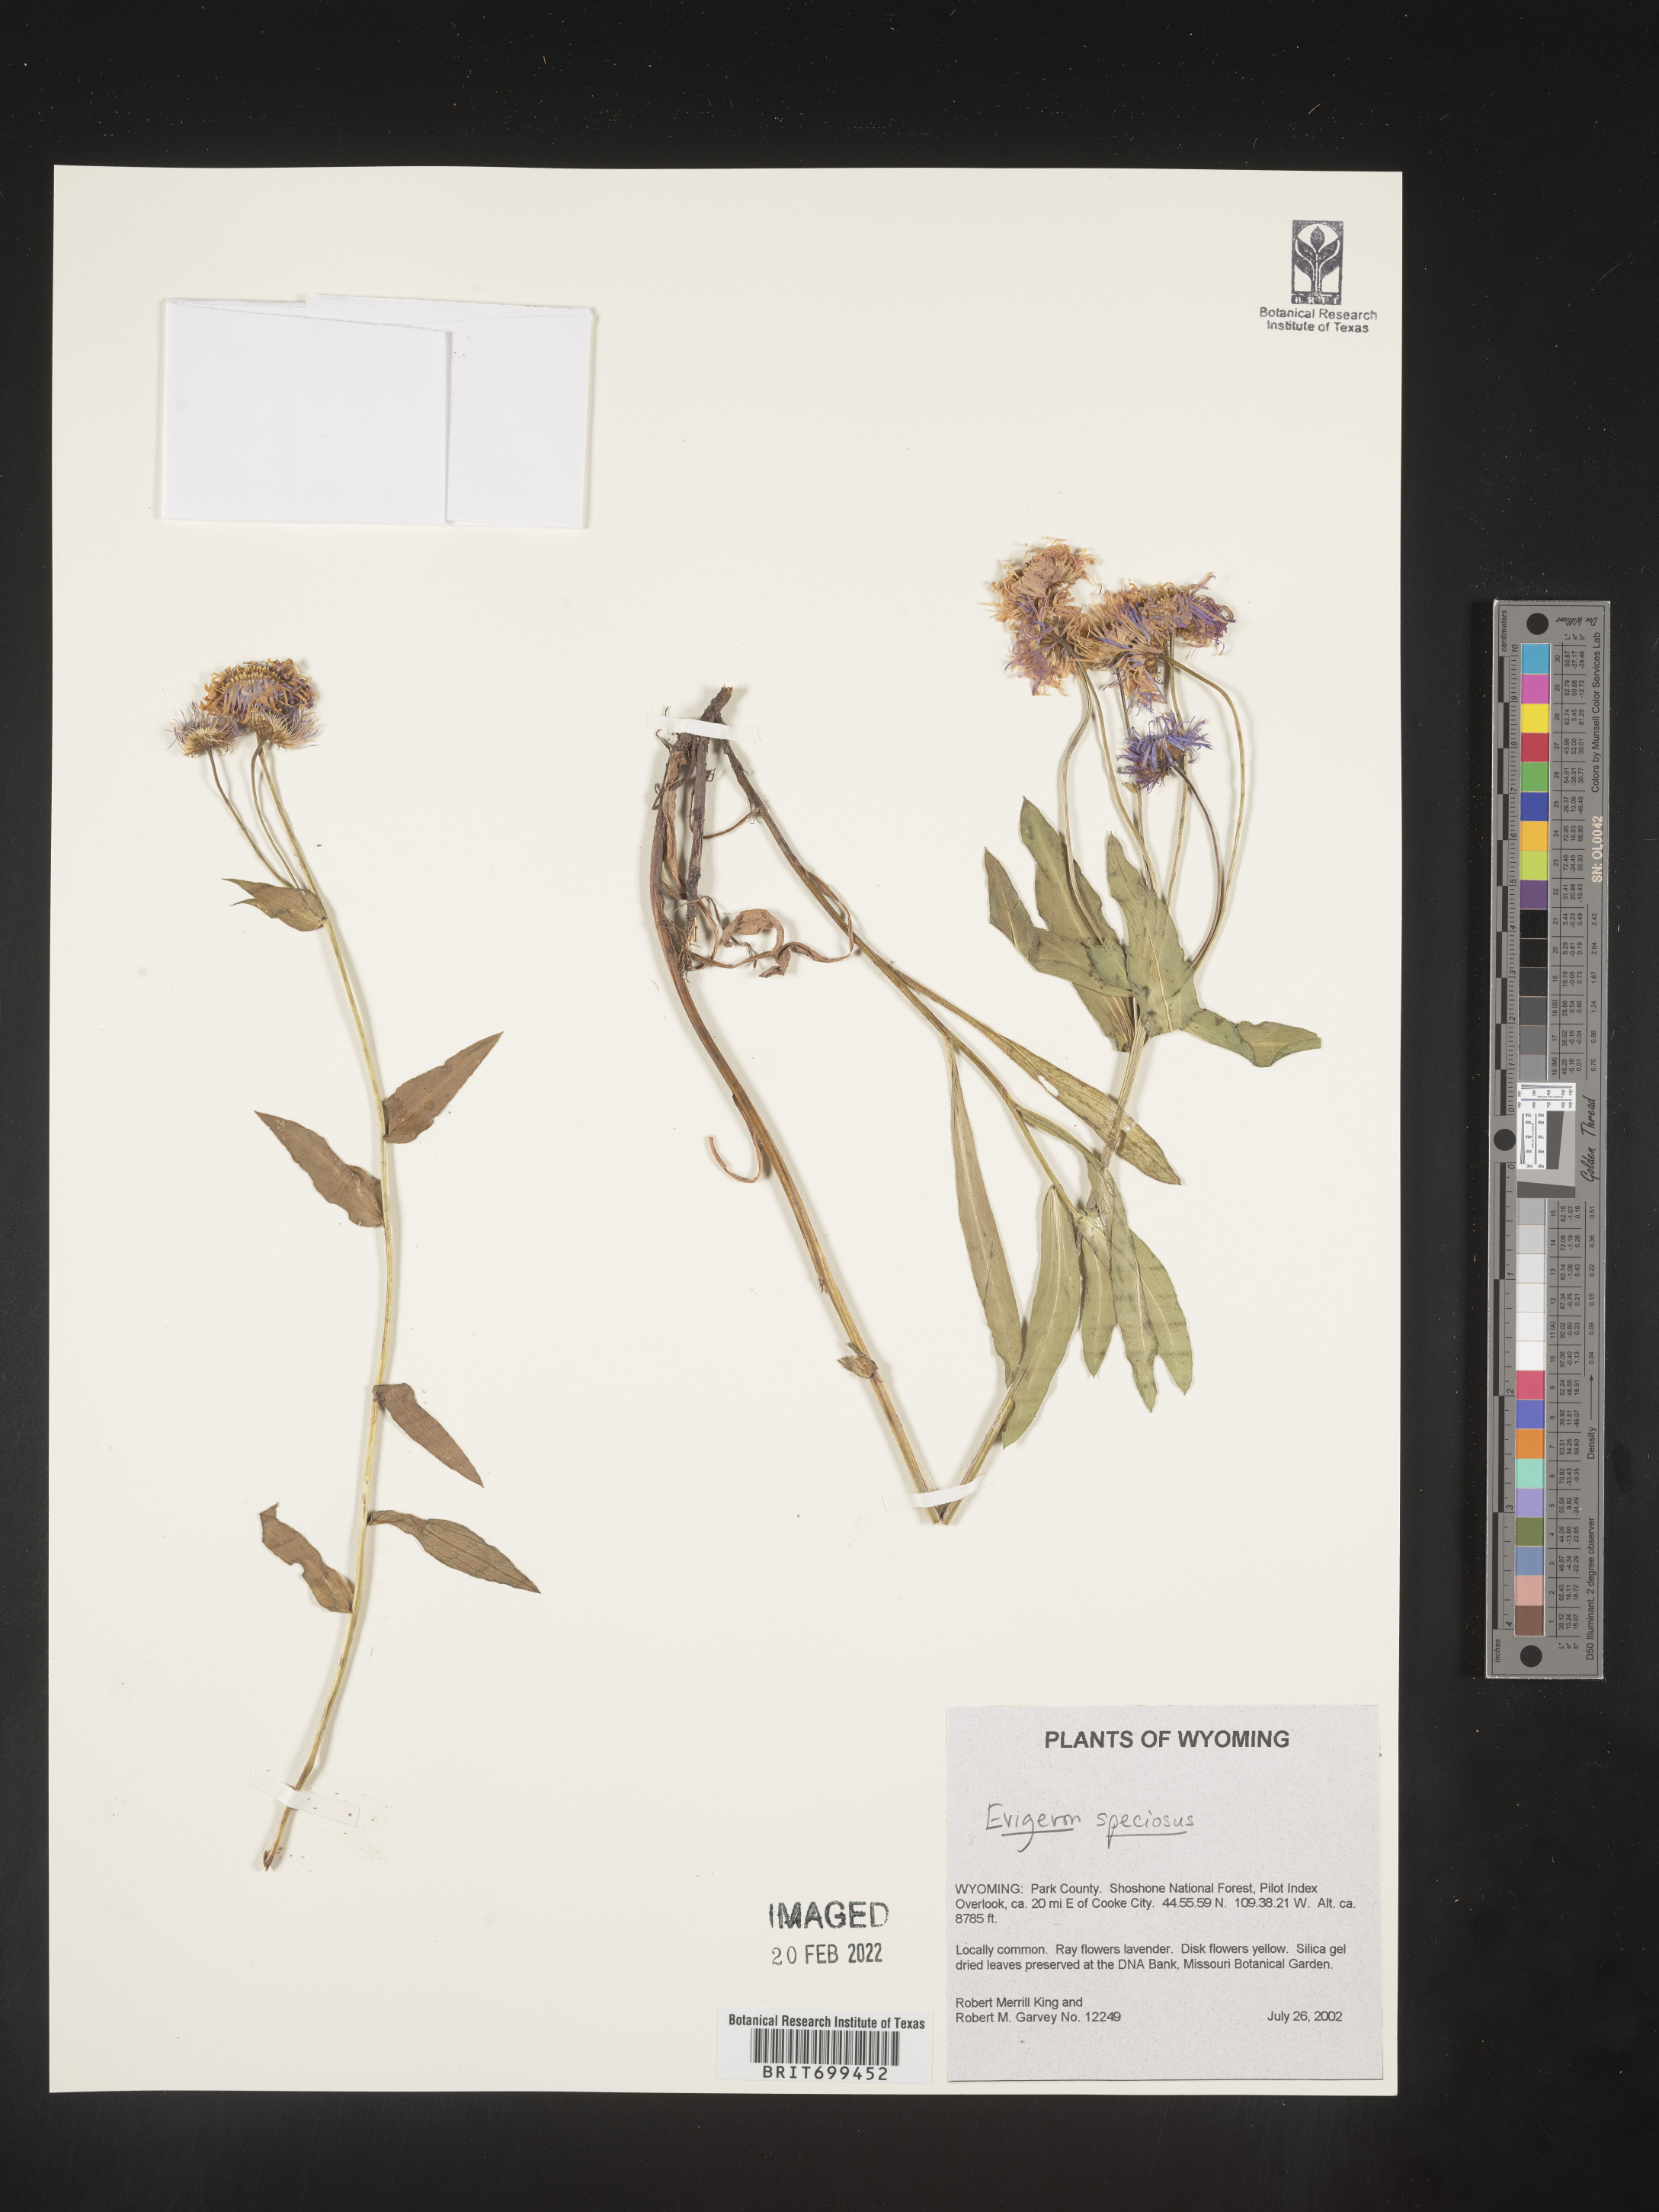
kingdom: Plantae
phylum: Tracheophyta
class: Magnoliopsida
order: Asterales
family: Asteraceae
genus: Erigeron
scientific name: Erigeron speciosus
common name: Aspen fleabane
